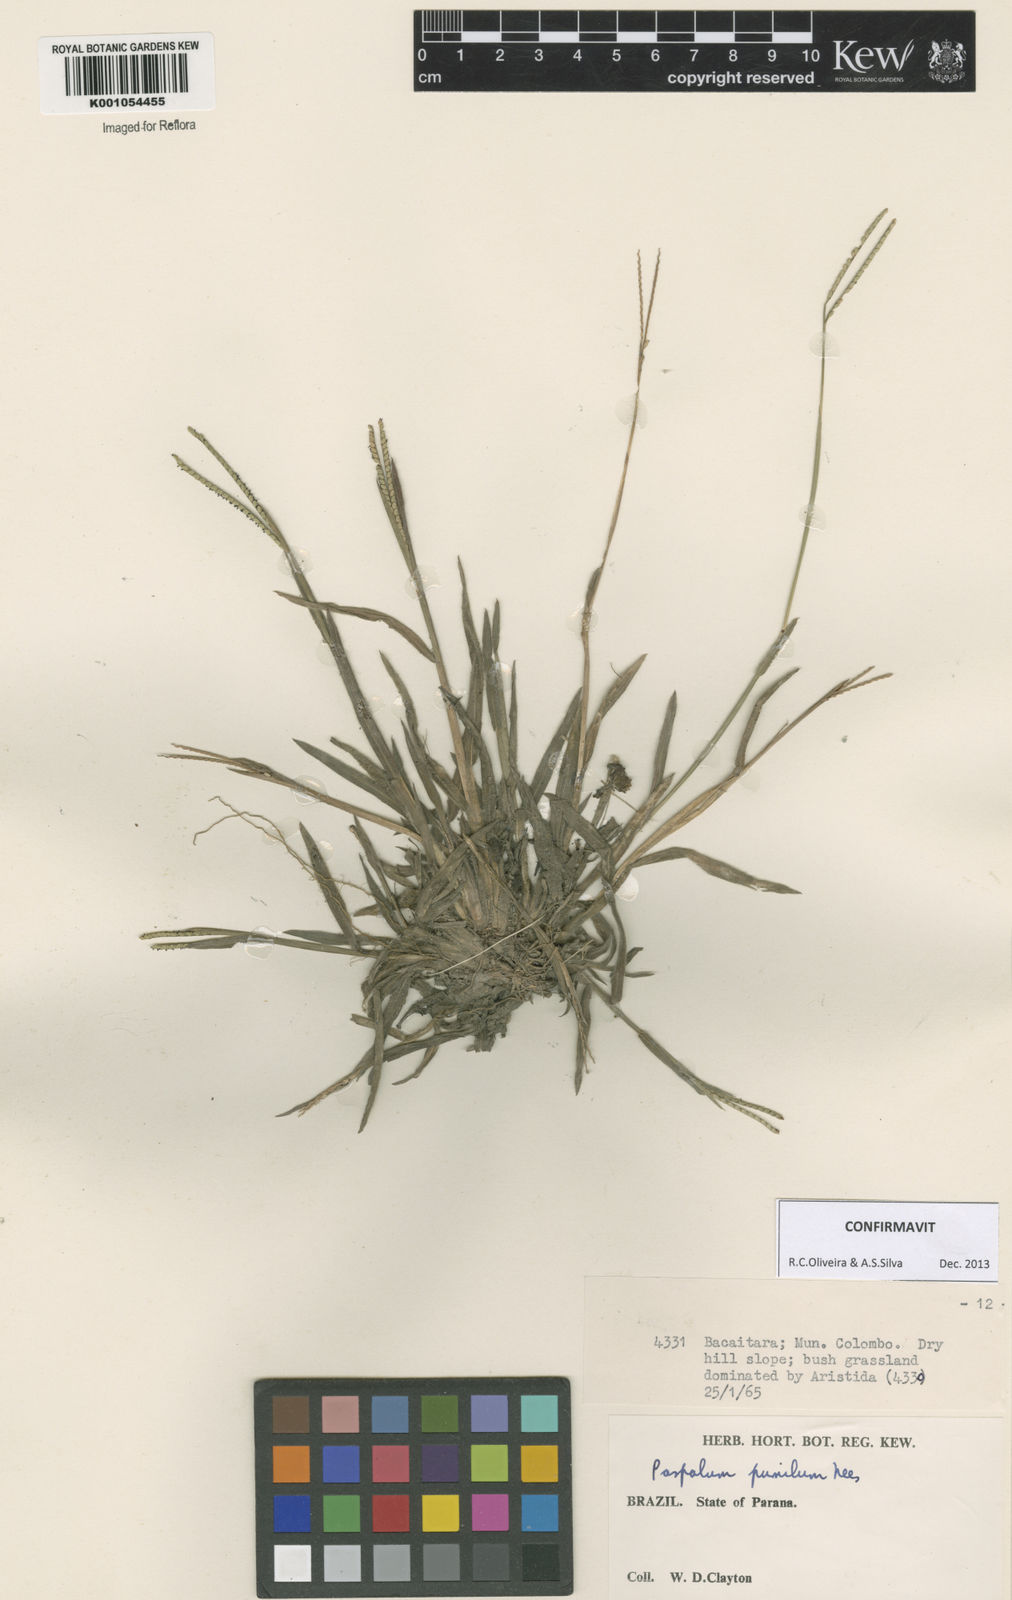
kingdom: Plantae
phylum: Tracheophyta
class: Liliopsida
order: Poales
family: Poaceae
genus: Paspalum
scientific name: Paspalum pumilum
